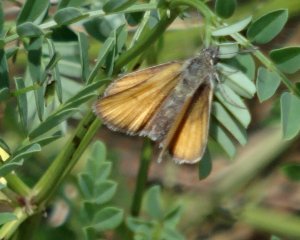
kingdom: Animalia
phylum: Arthropoda
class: Insecta
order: Lepidoptera
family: Hesperiidae
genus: Thymelicus
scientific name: Thymelicus lineola
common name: European Skipper
